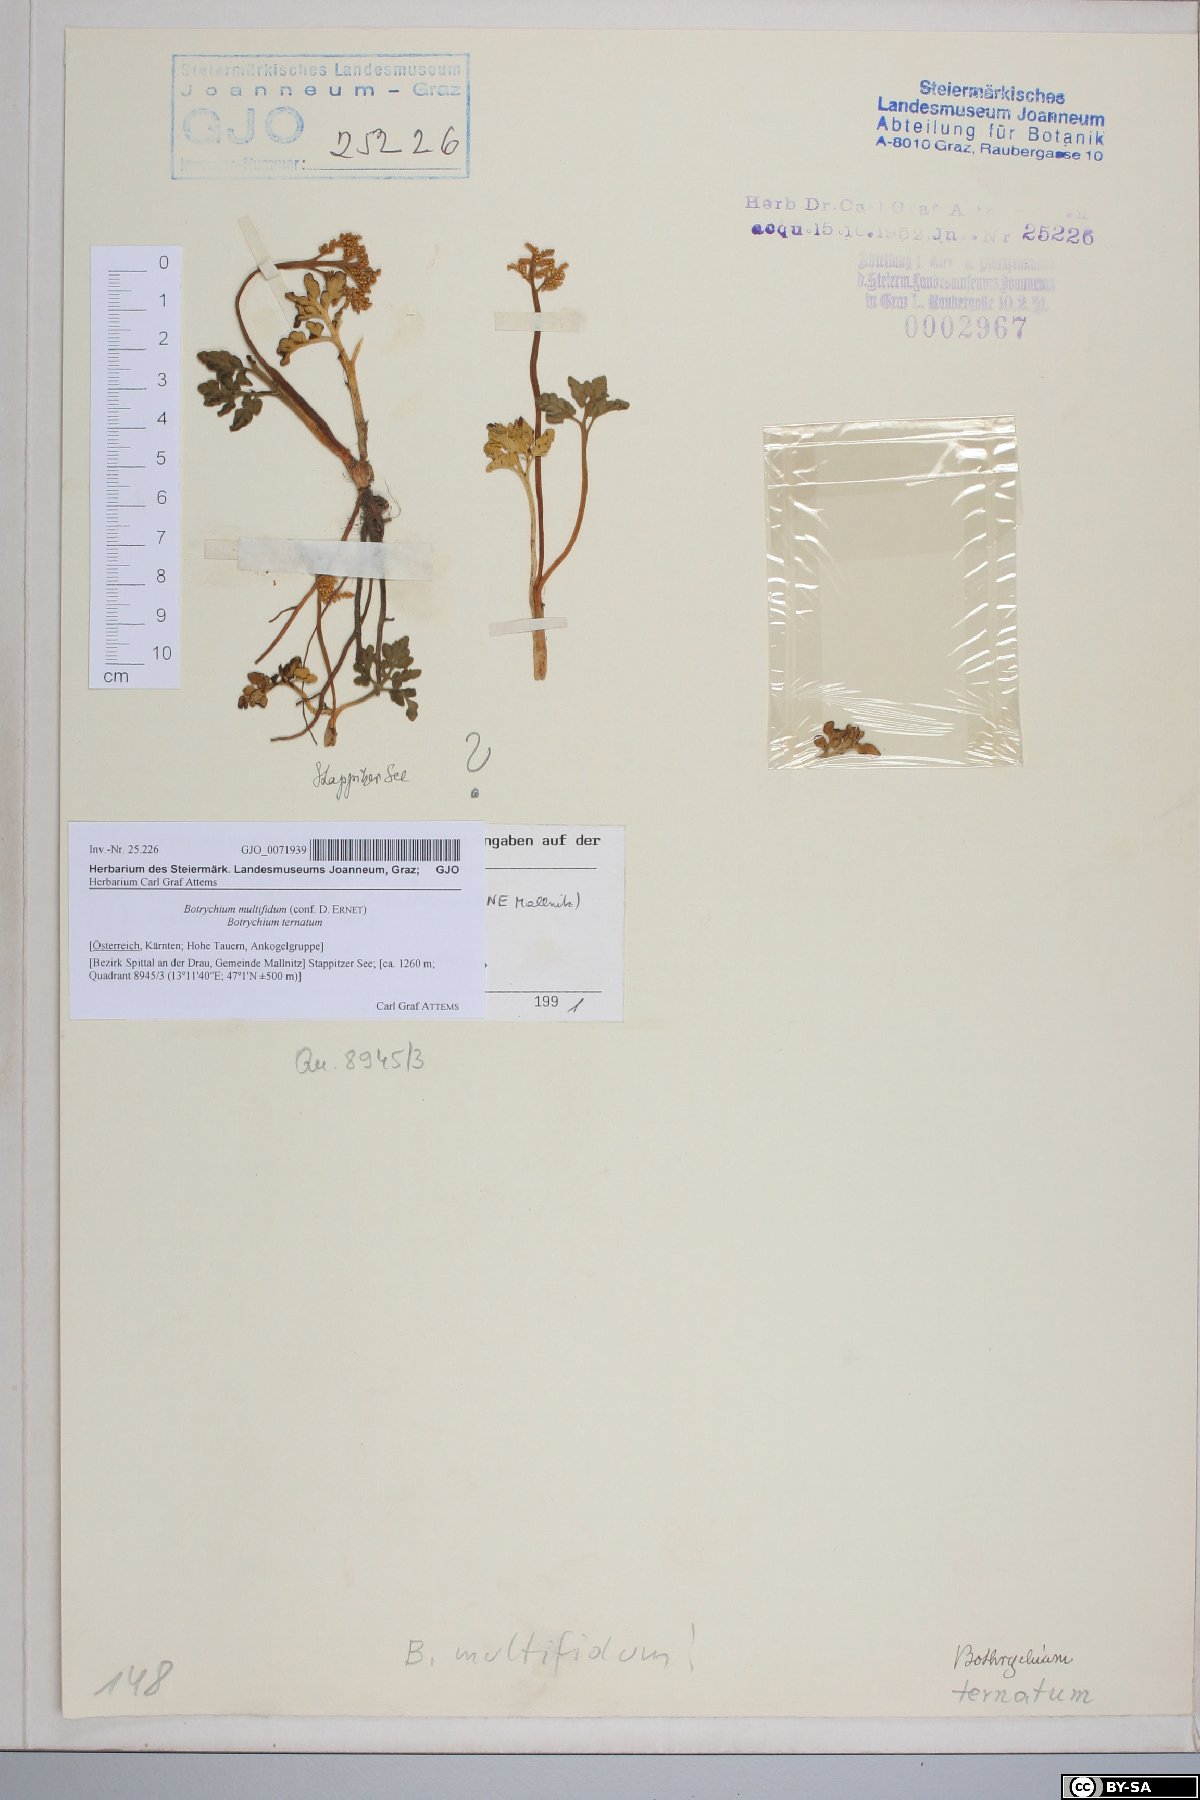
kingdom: Plantae
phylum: Tracheophyta
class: Polypodiopsida
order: Ophioglossales
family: Ophioglossaceae
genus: Sceptridium
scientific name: Sceptridium multifidum
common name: Leathery grape fern
